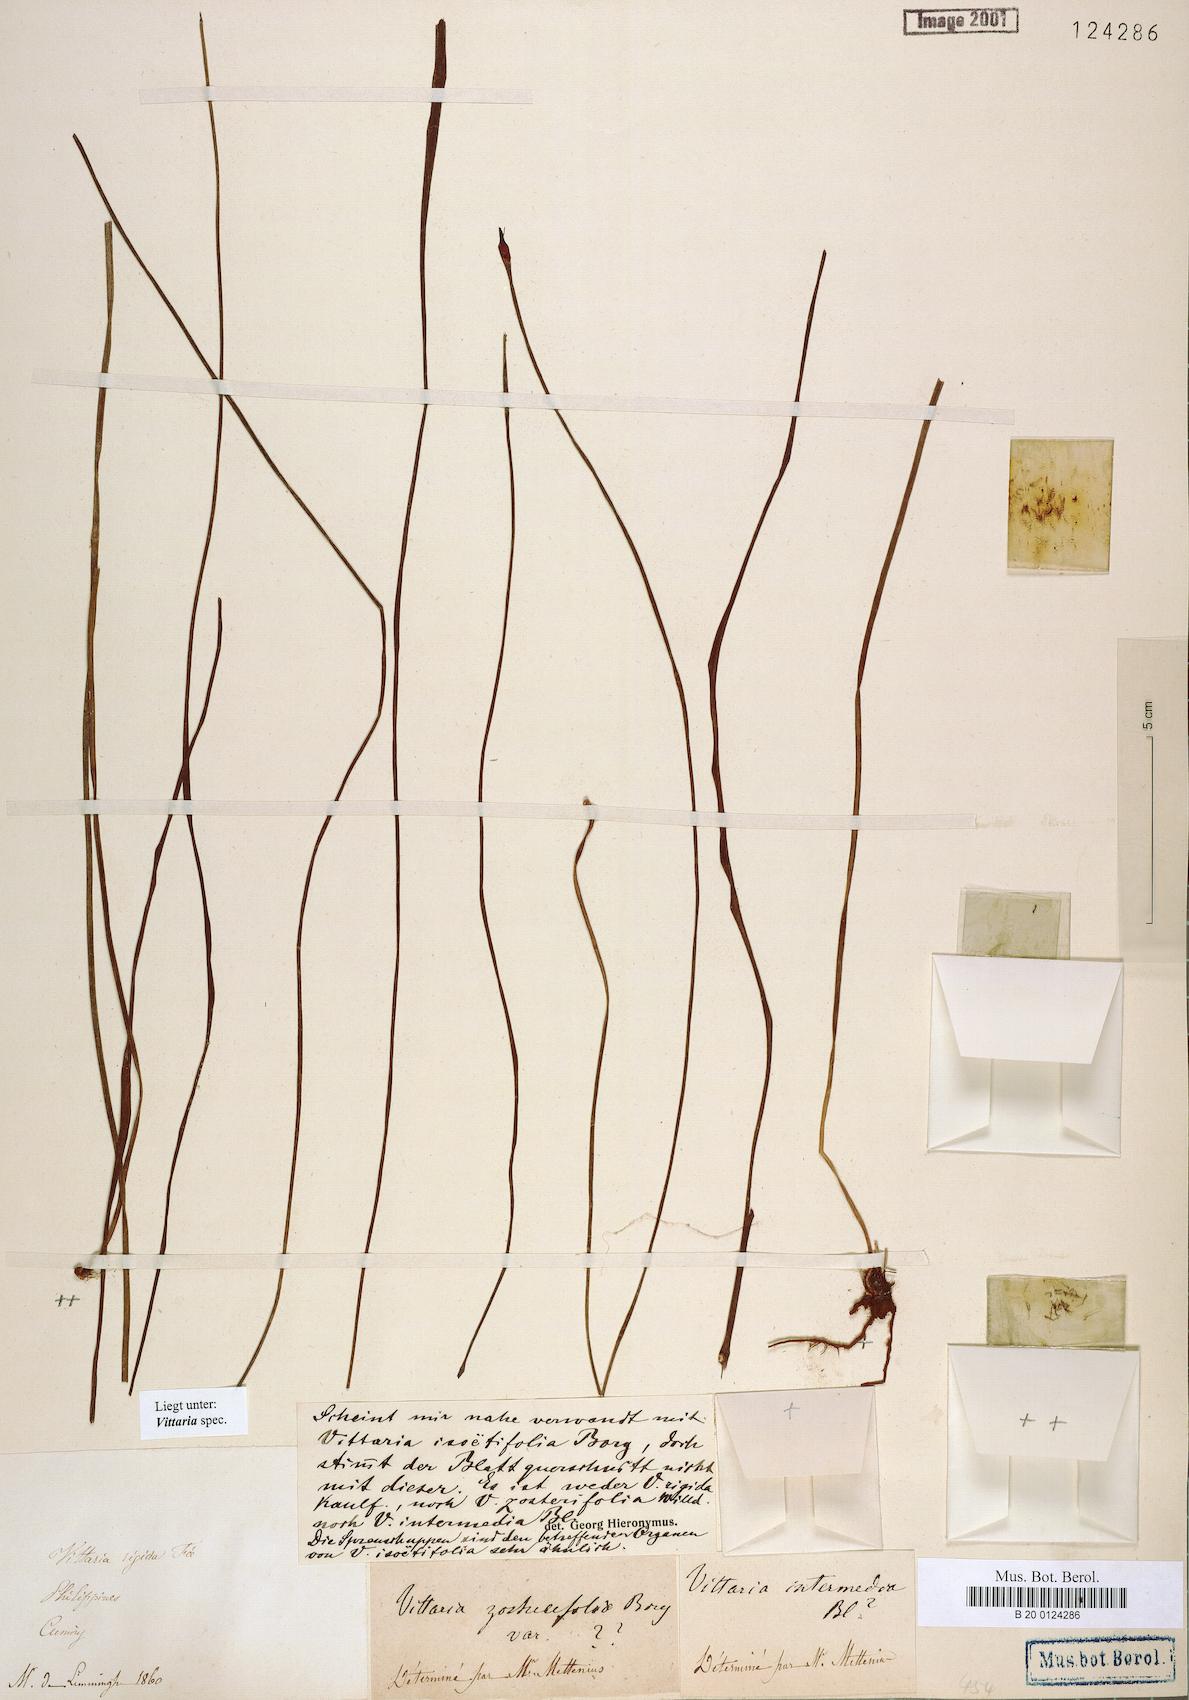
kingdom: Plantae
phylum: Tracheophyta
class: Polypodiopsida
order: Polypodiales
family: Pteridaceae
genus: Haplopteris
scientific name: Haplopteris
